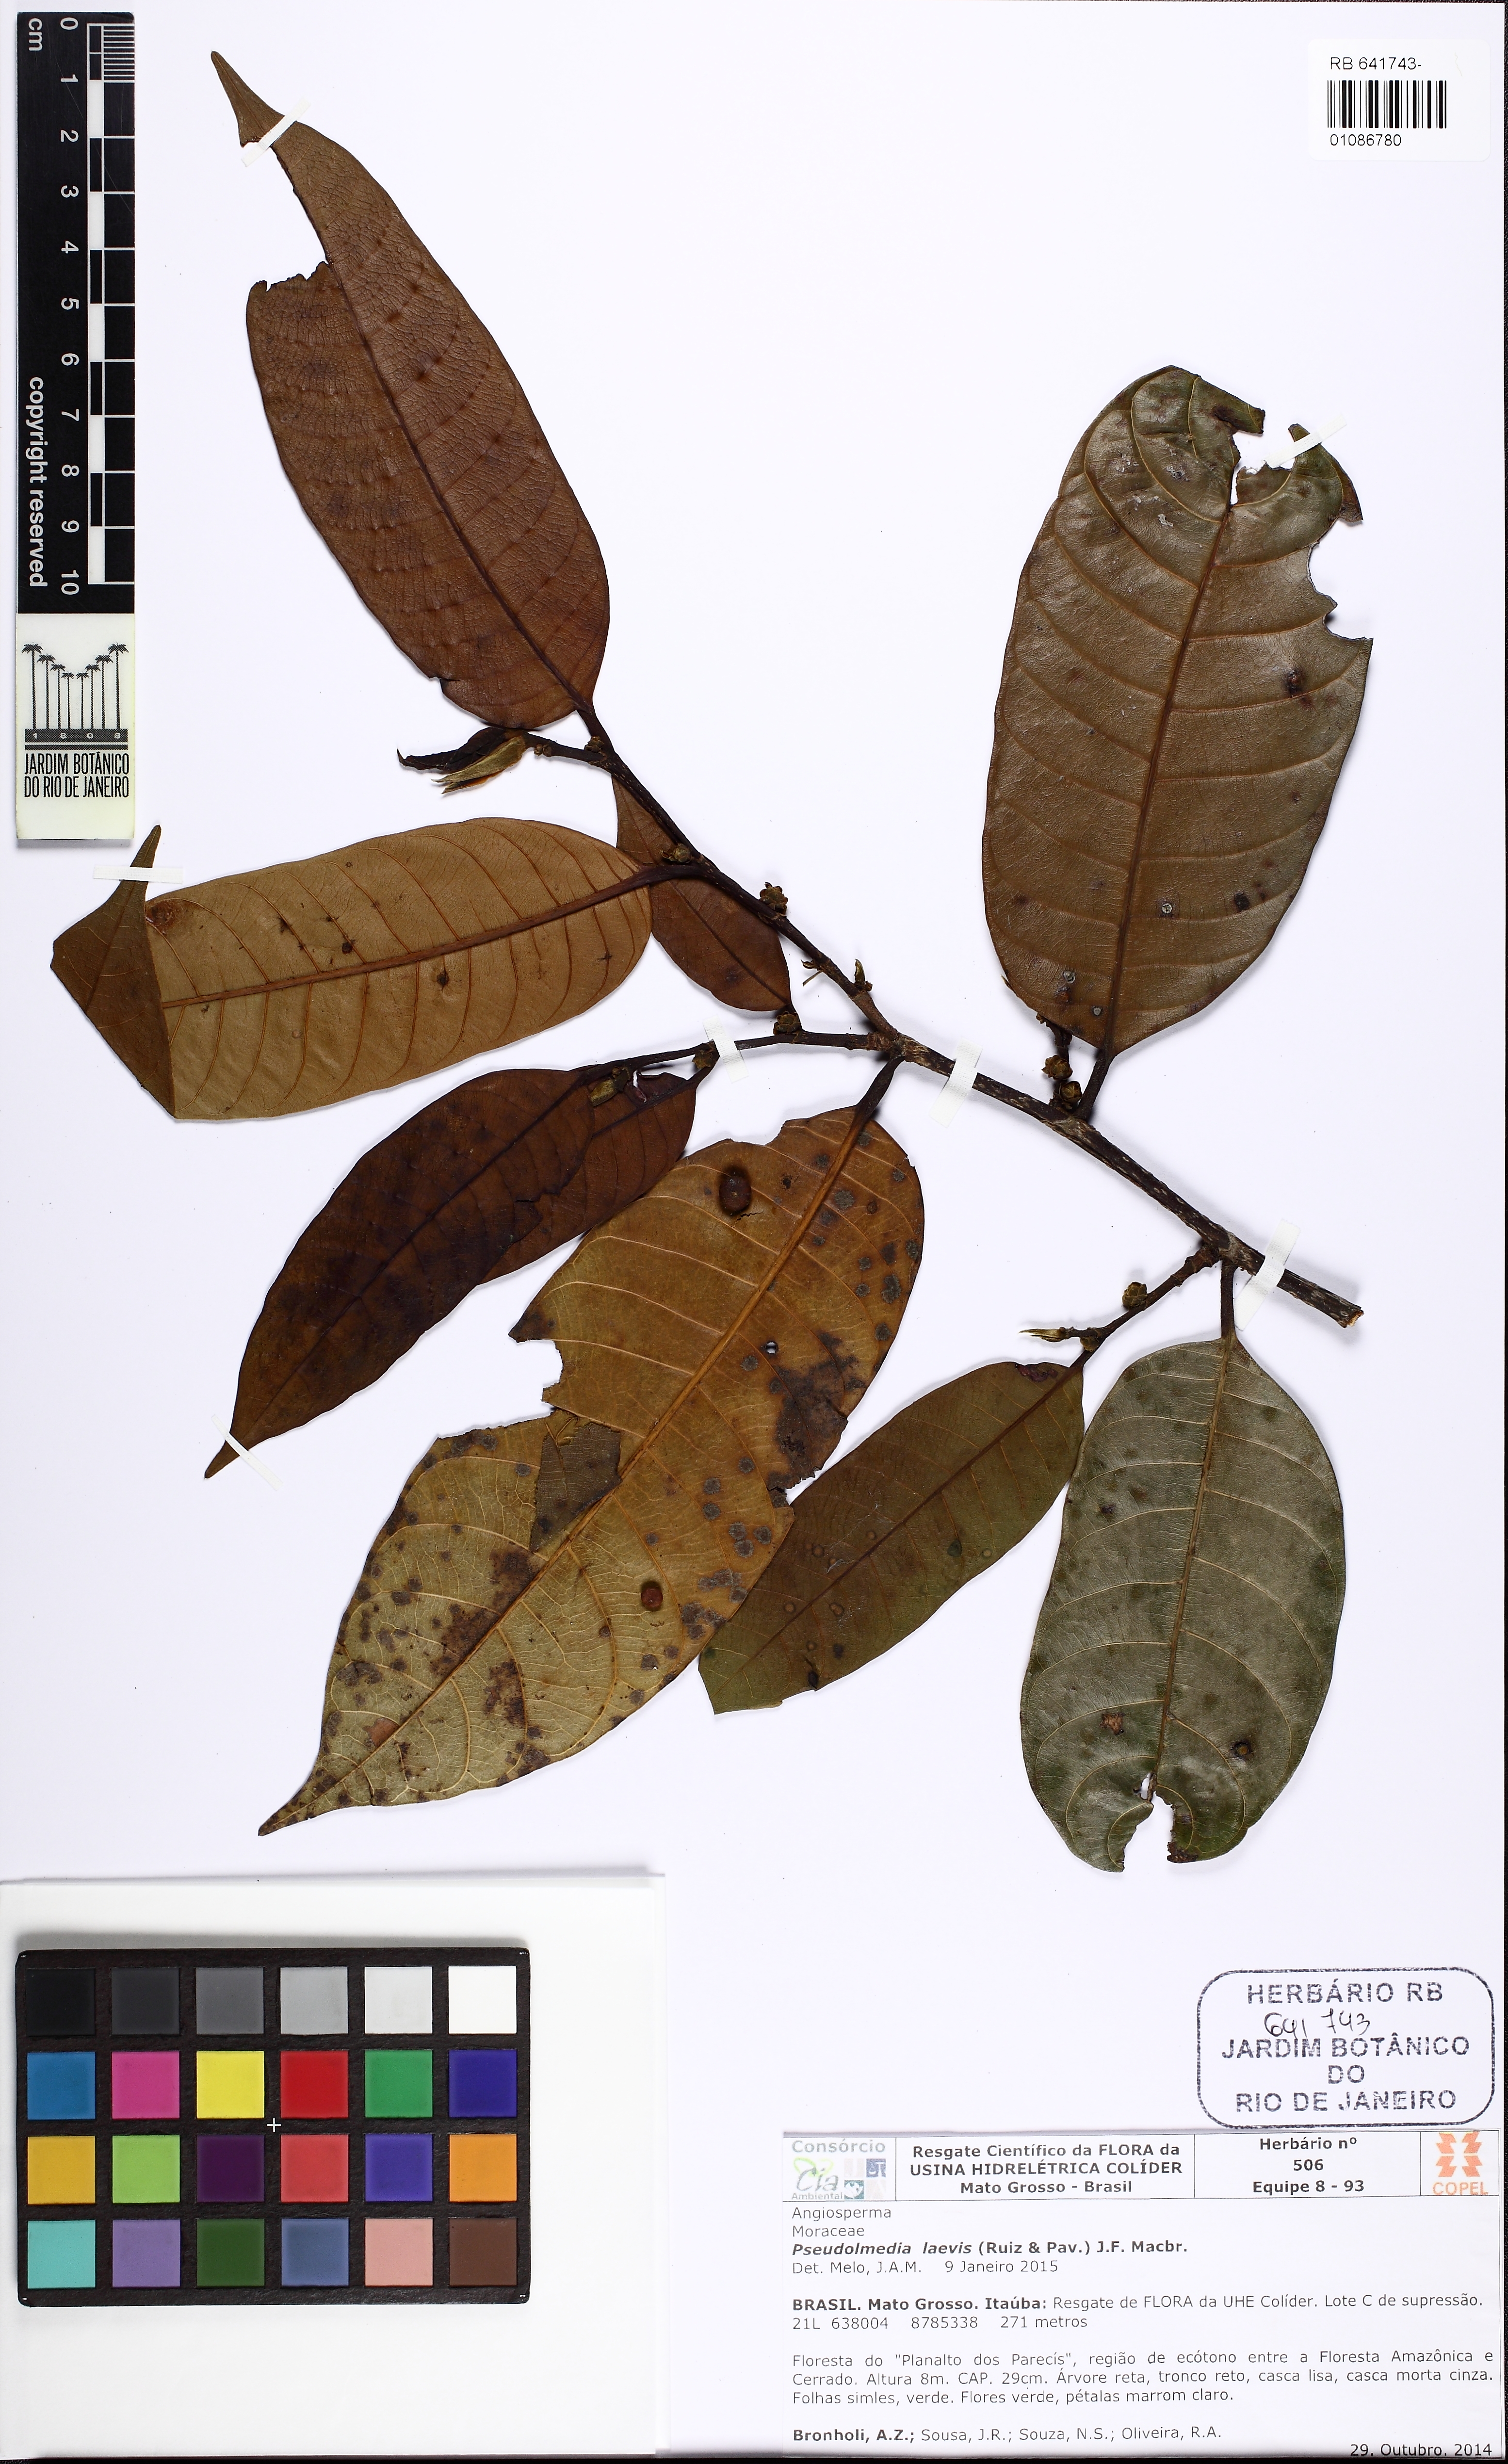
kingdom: Plantae
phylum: Tracheophyta
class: Magnoliopsida
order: Rosales
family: Moraceae
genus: Pseudolmedia
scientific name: Pseudolmedia laevis
